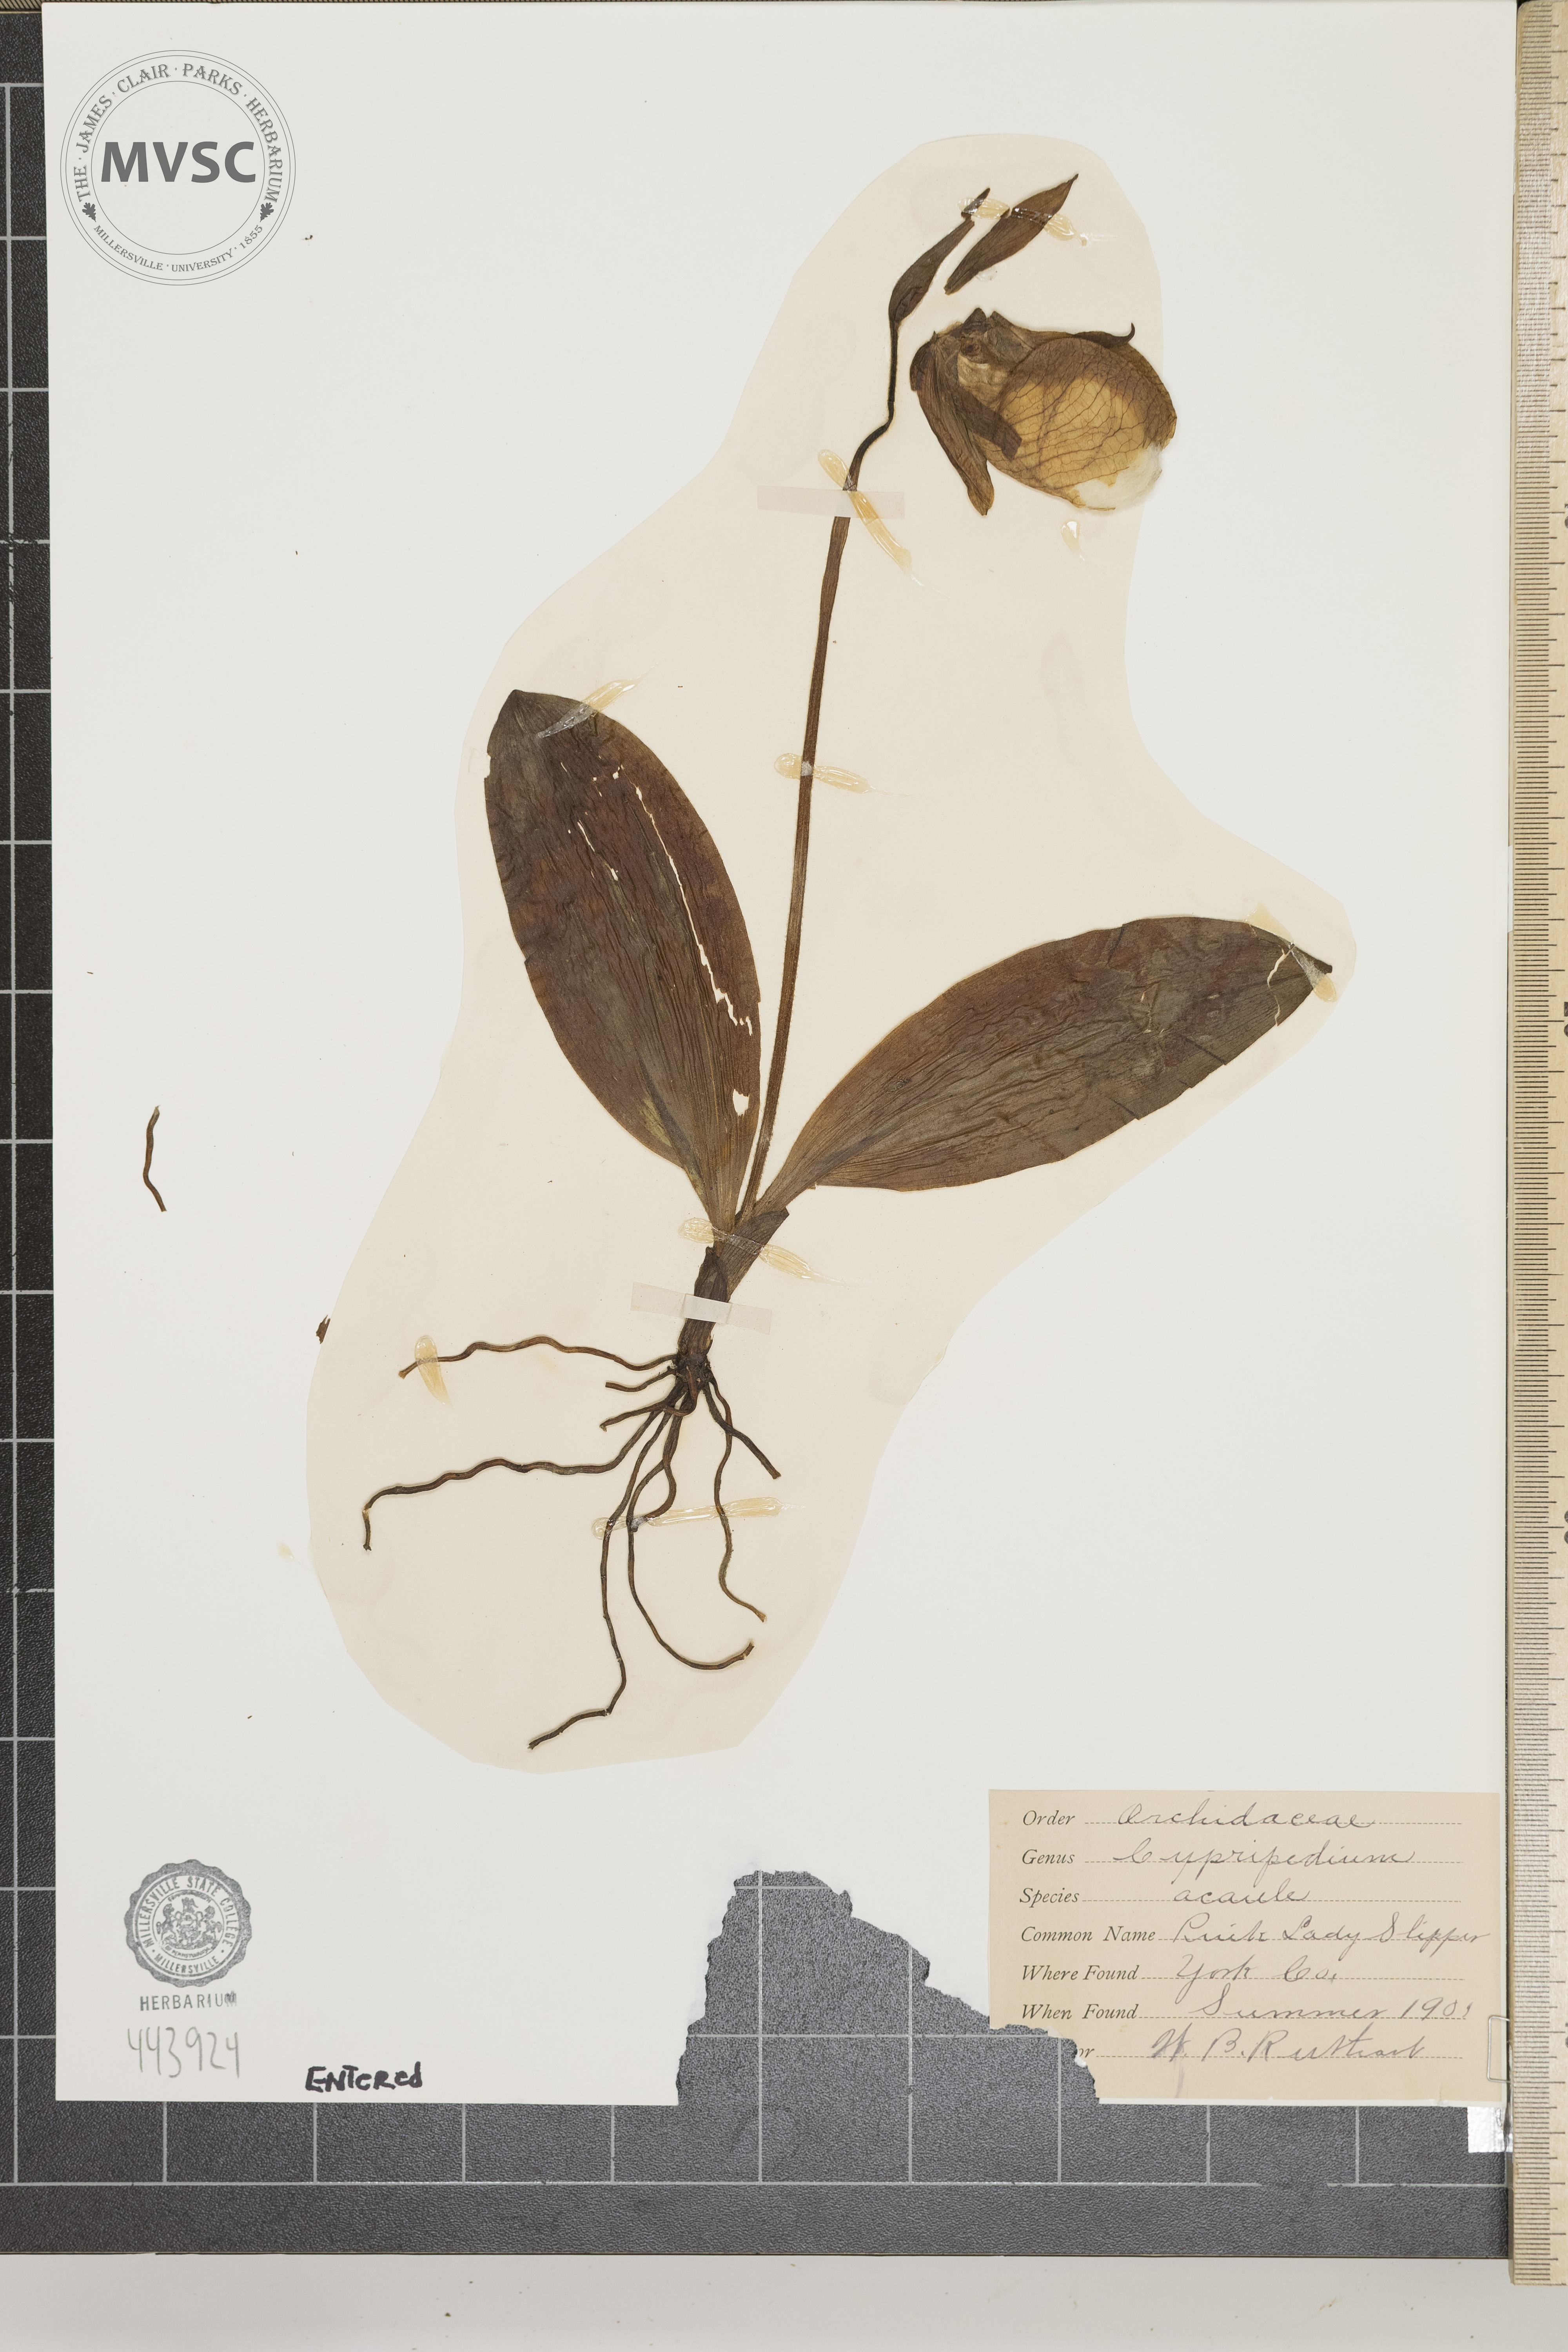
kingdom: Plantae
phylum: Tracheophyta
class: Liliopsida
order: Asparagales
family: Orchidaceae
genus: Cypripedium
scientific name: Cypripedium acaule
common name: Pink lady slipper
